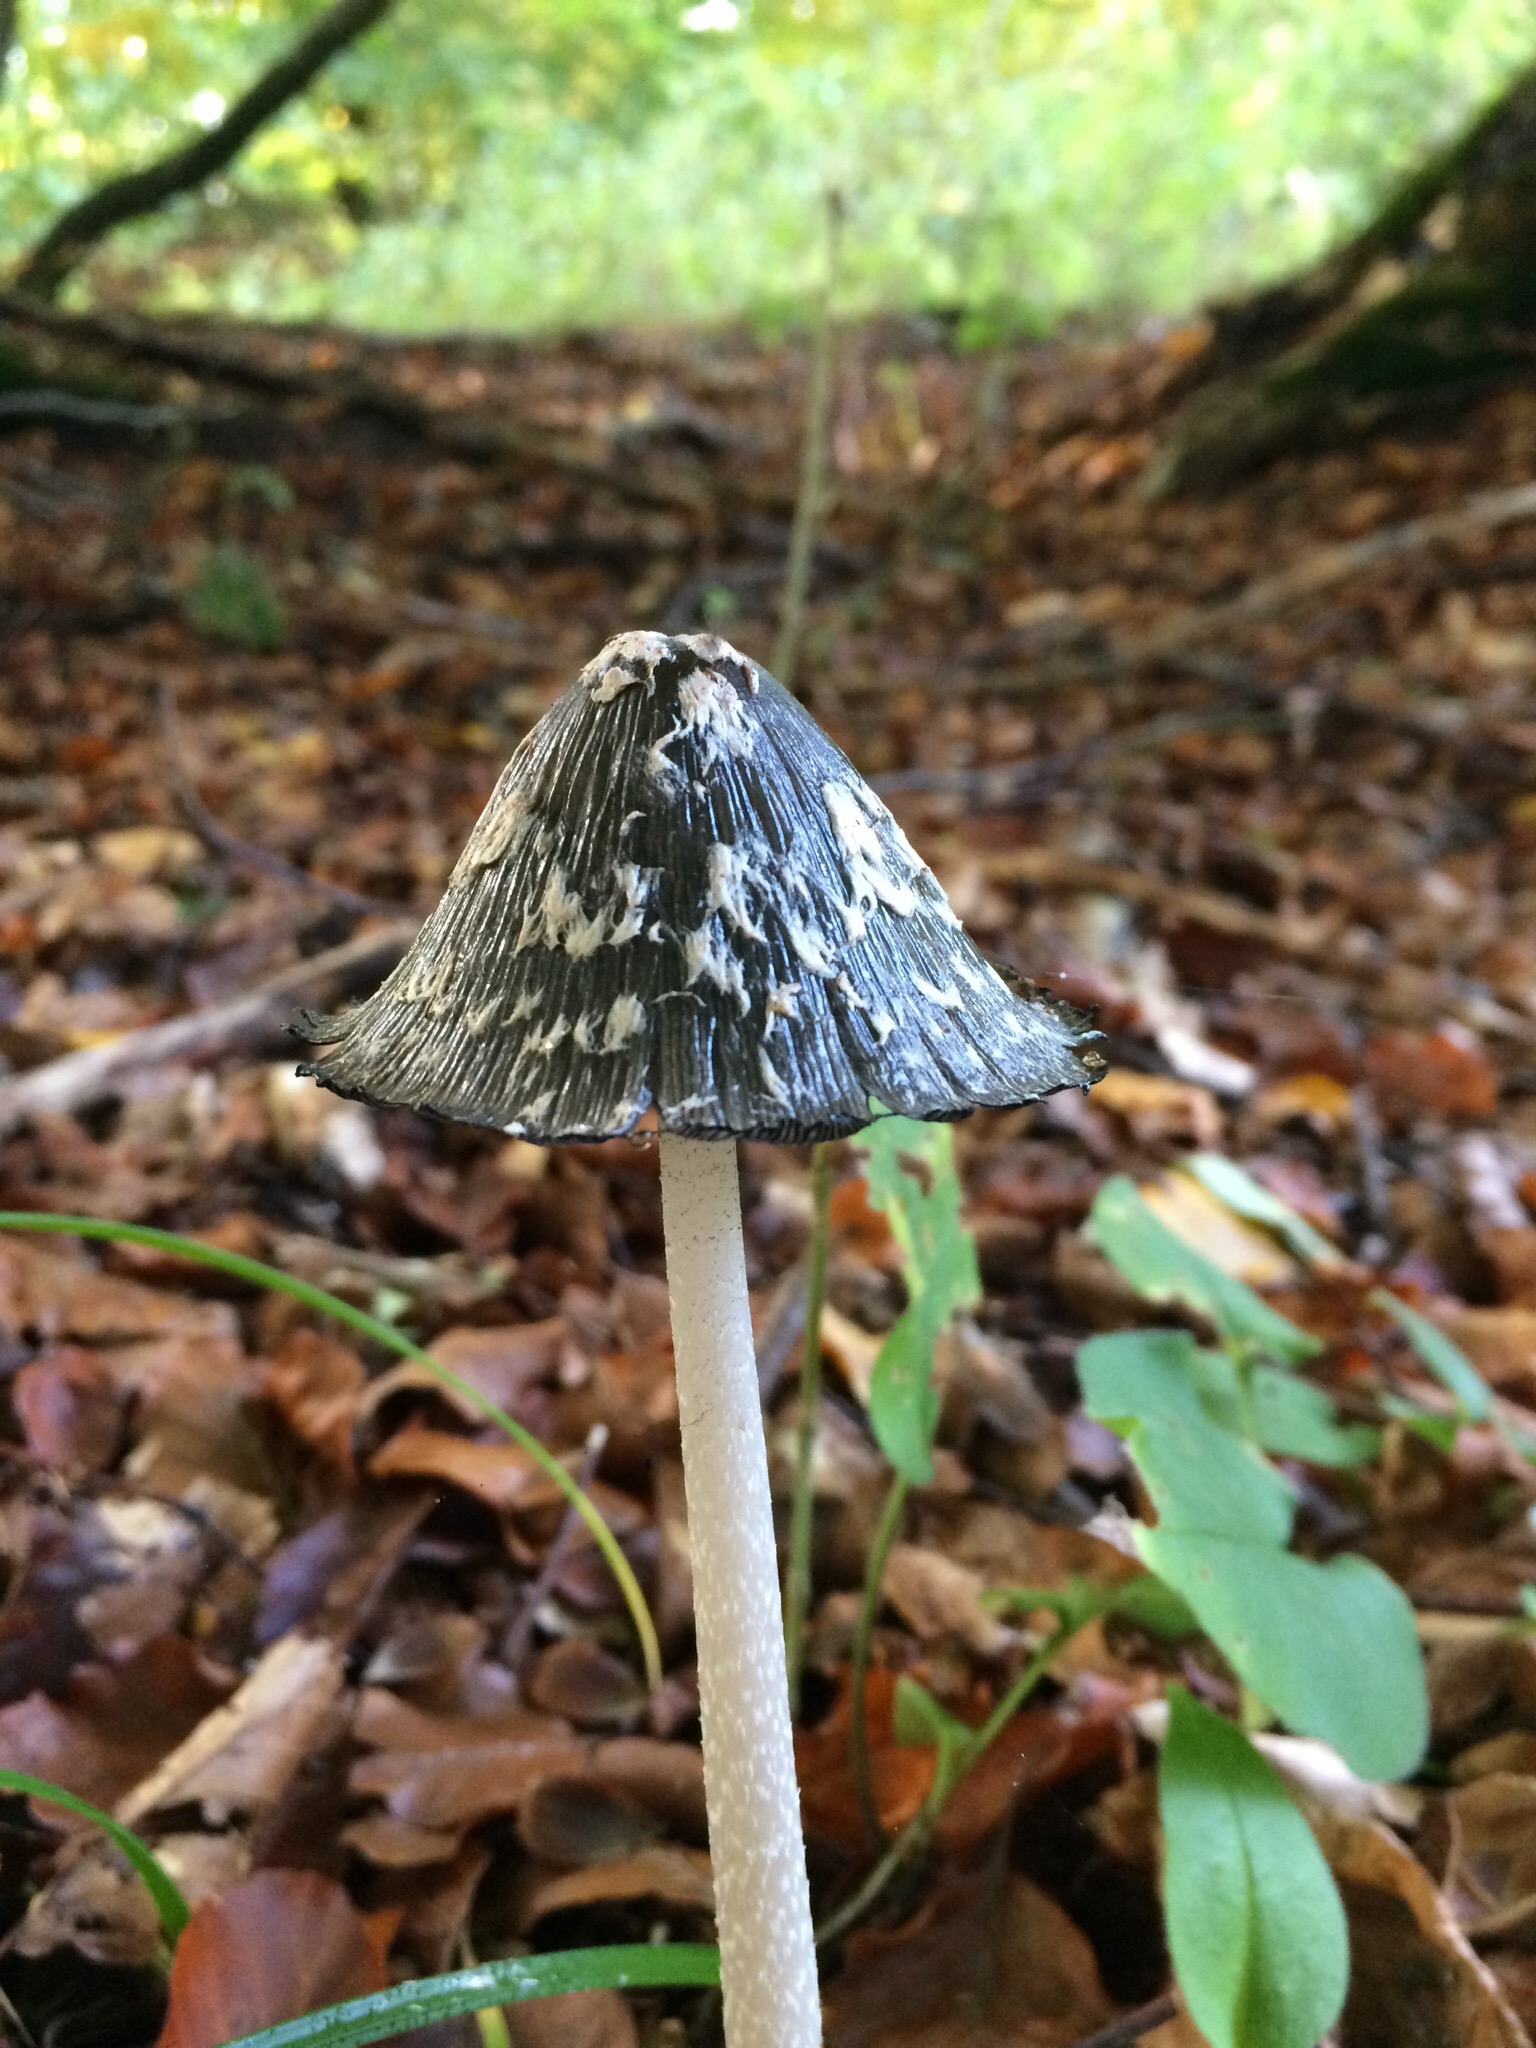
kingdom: Fungi
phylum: Basidiomycota
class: Agaricomycetes
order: Agaricales
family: Psathyrellaceae
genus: Coprinopsis
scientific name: Coprinopsis picacea
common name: skade-blækhat
